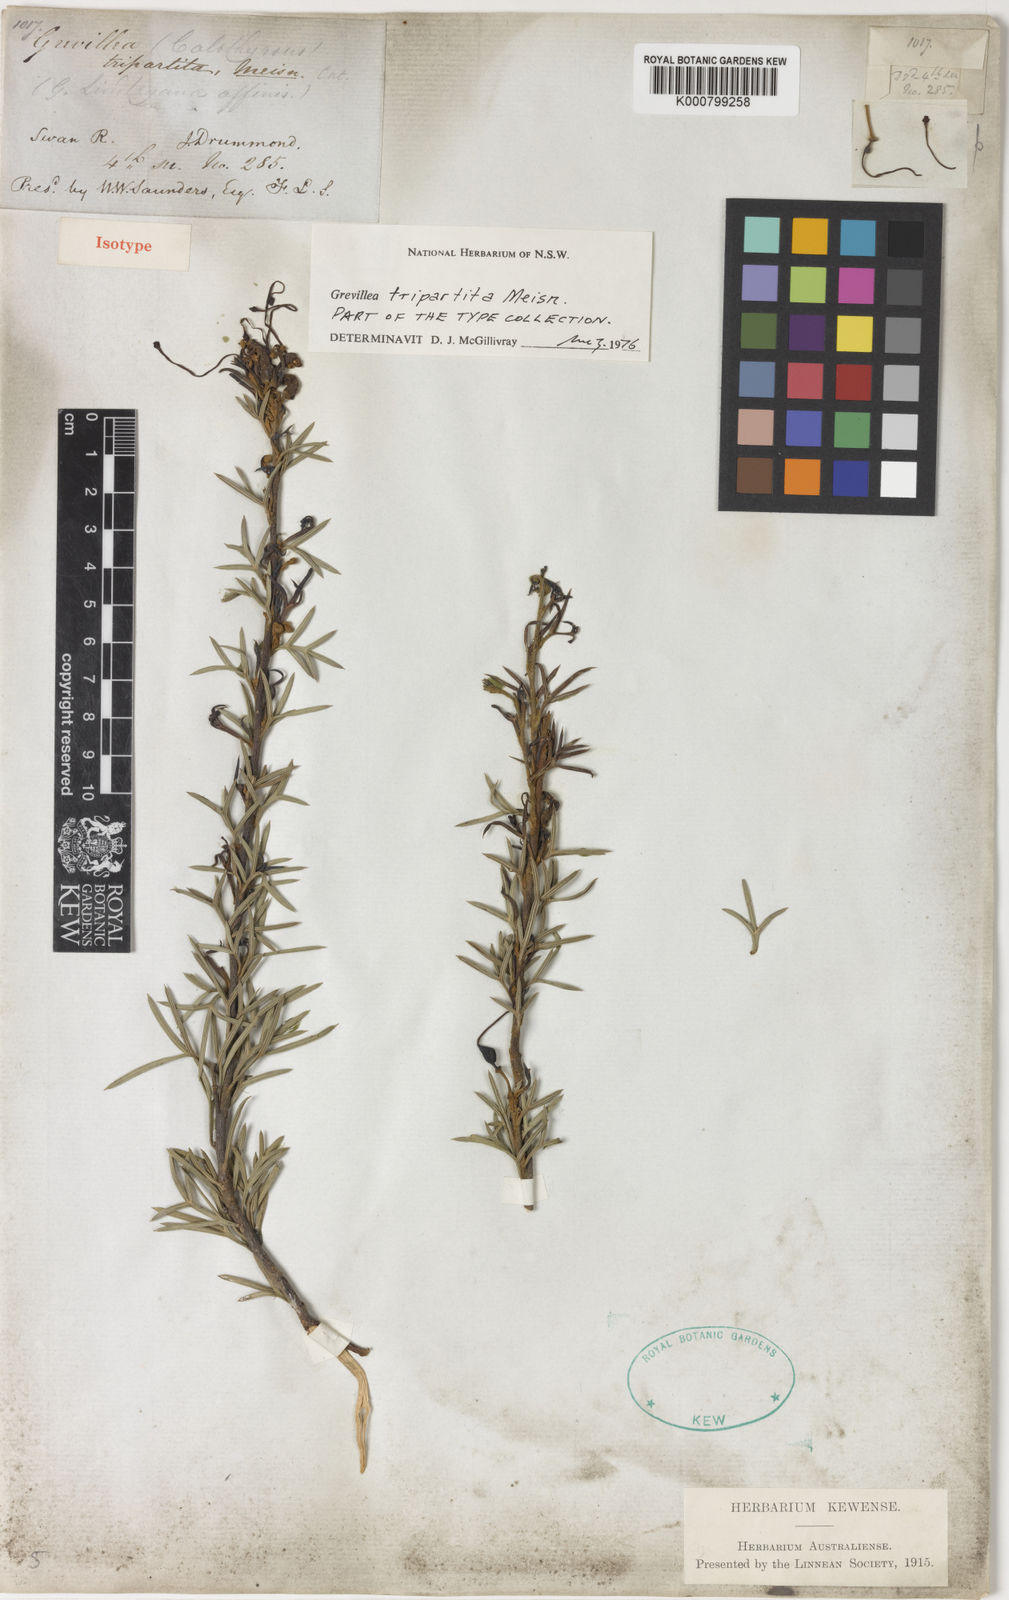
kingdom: Plantae
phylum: Tracheophyta
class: Magnoliopsida
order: Proteales
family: Proteaceae
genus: Grevillea
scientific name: Grevillea tripartita
